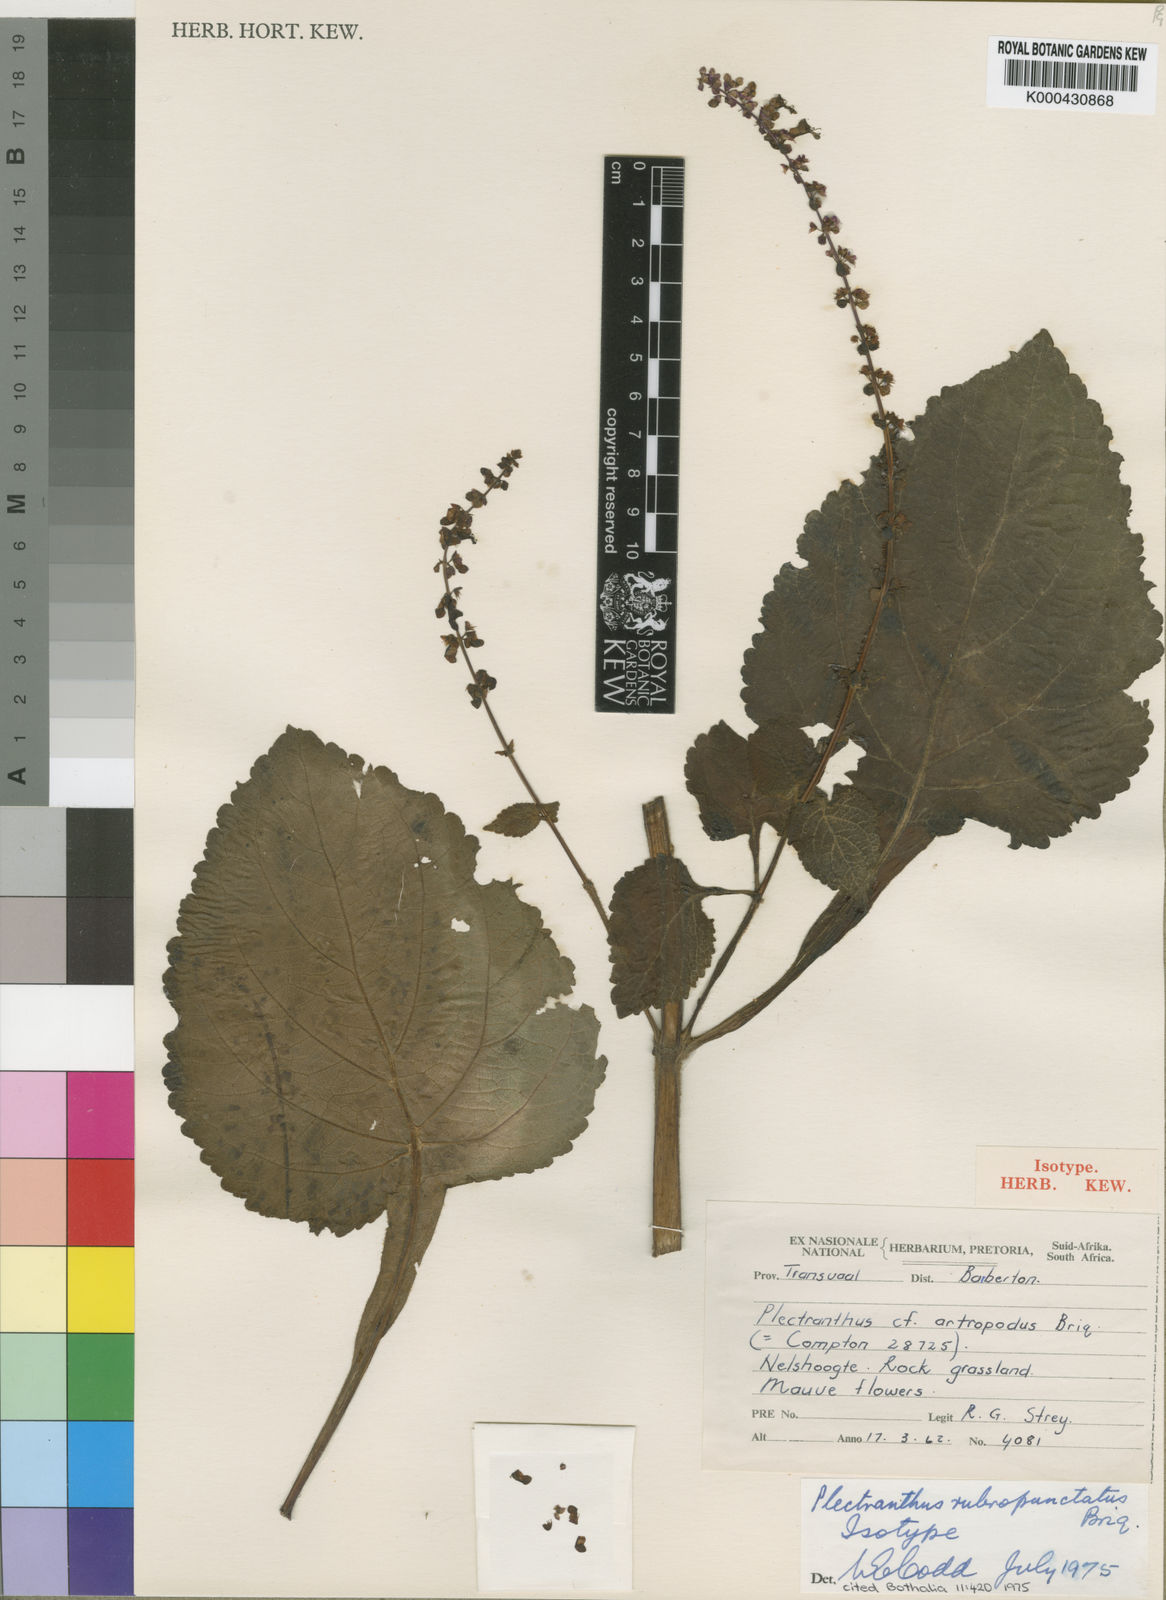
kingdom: Plantae
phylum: Tracheophyta
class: Magnoliopsida
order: Lamiales
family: Lamiaceae
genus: Plectranthus
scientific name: Plectranthus
